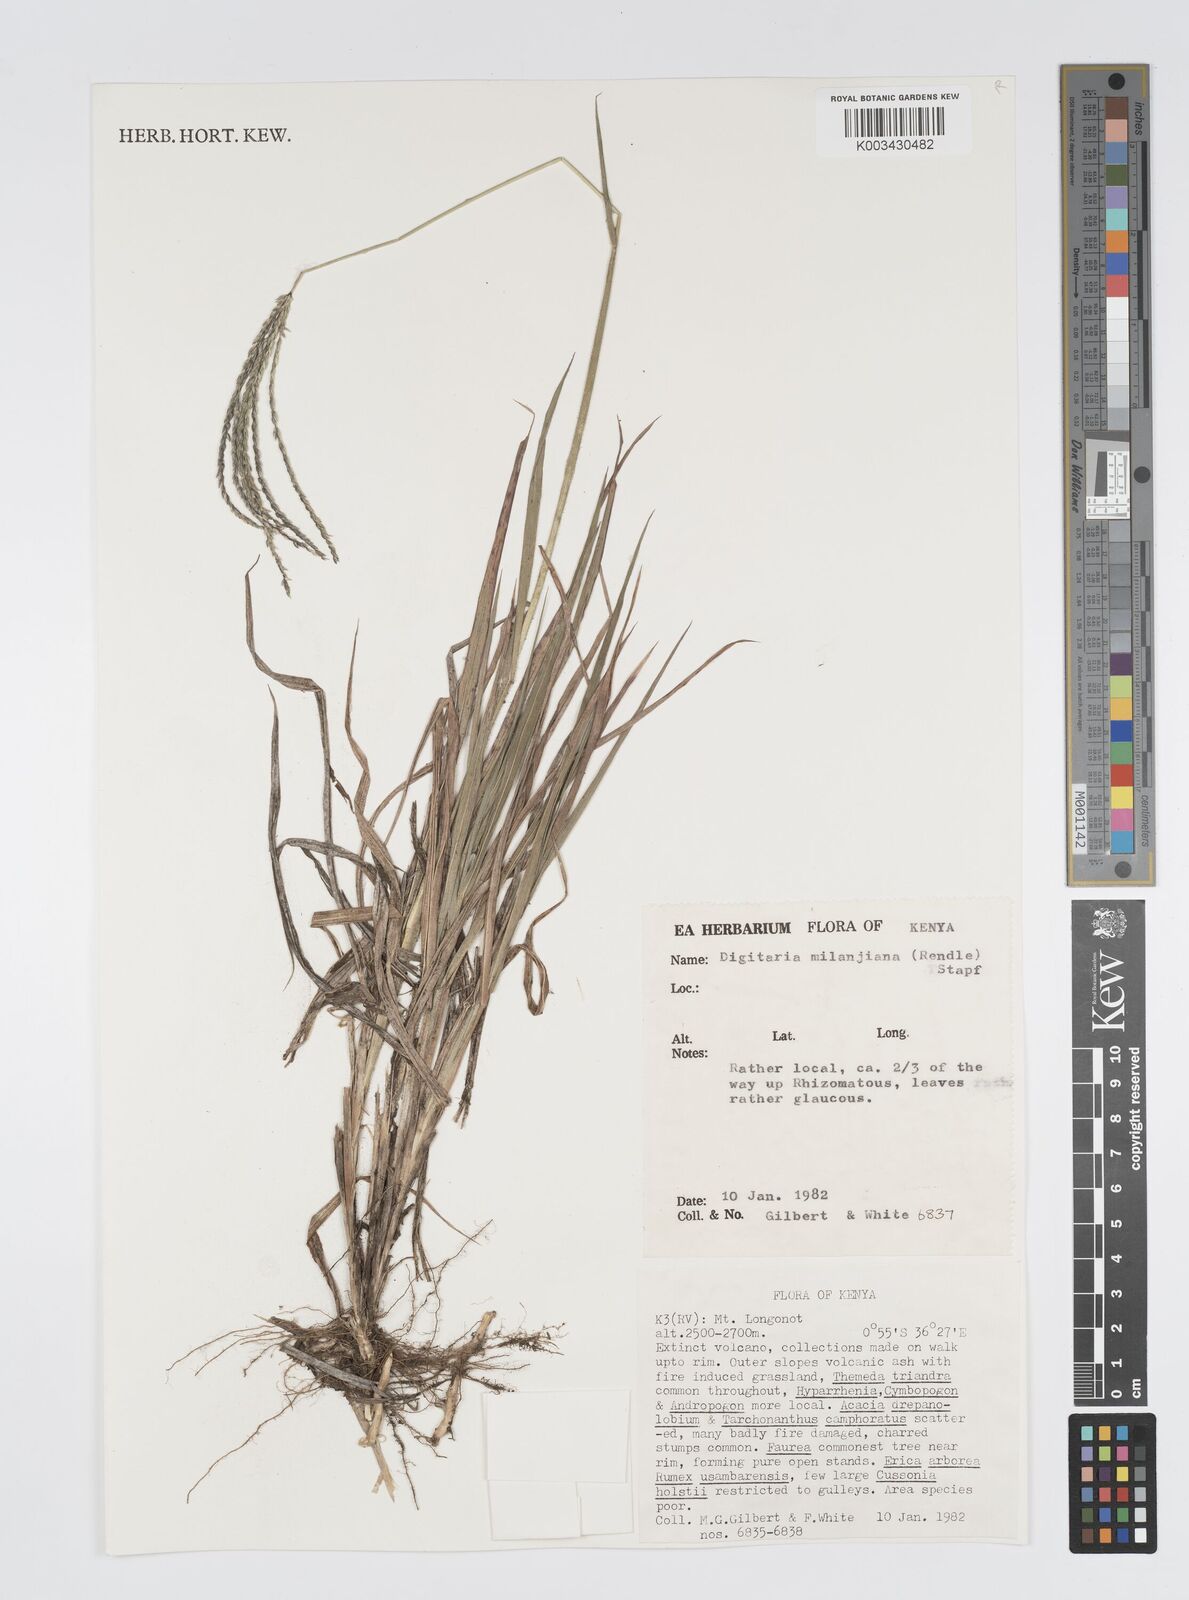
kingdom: Plantae
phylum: Tracheophyta
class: Liliopsida
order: Poales
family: Poaceae
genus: Digitaria
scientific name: Digitaria milanjiana
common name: Madagascar crabgrass
